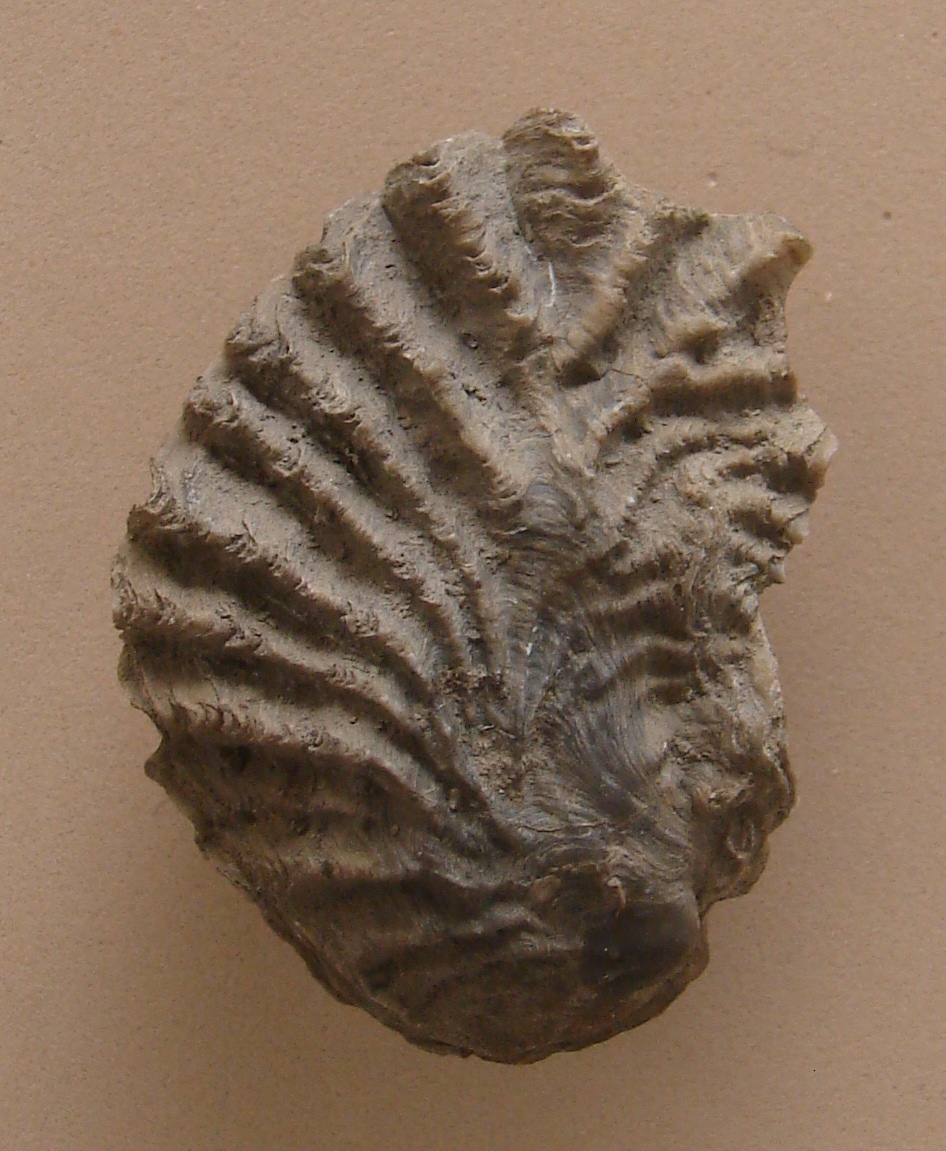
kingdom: Animalia
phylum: Mollusca
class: Bivalvia
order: Ostreida
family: Ostreidae
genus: Ostrea
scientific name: Ostrea pulligera
